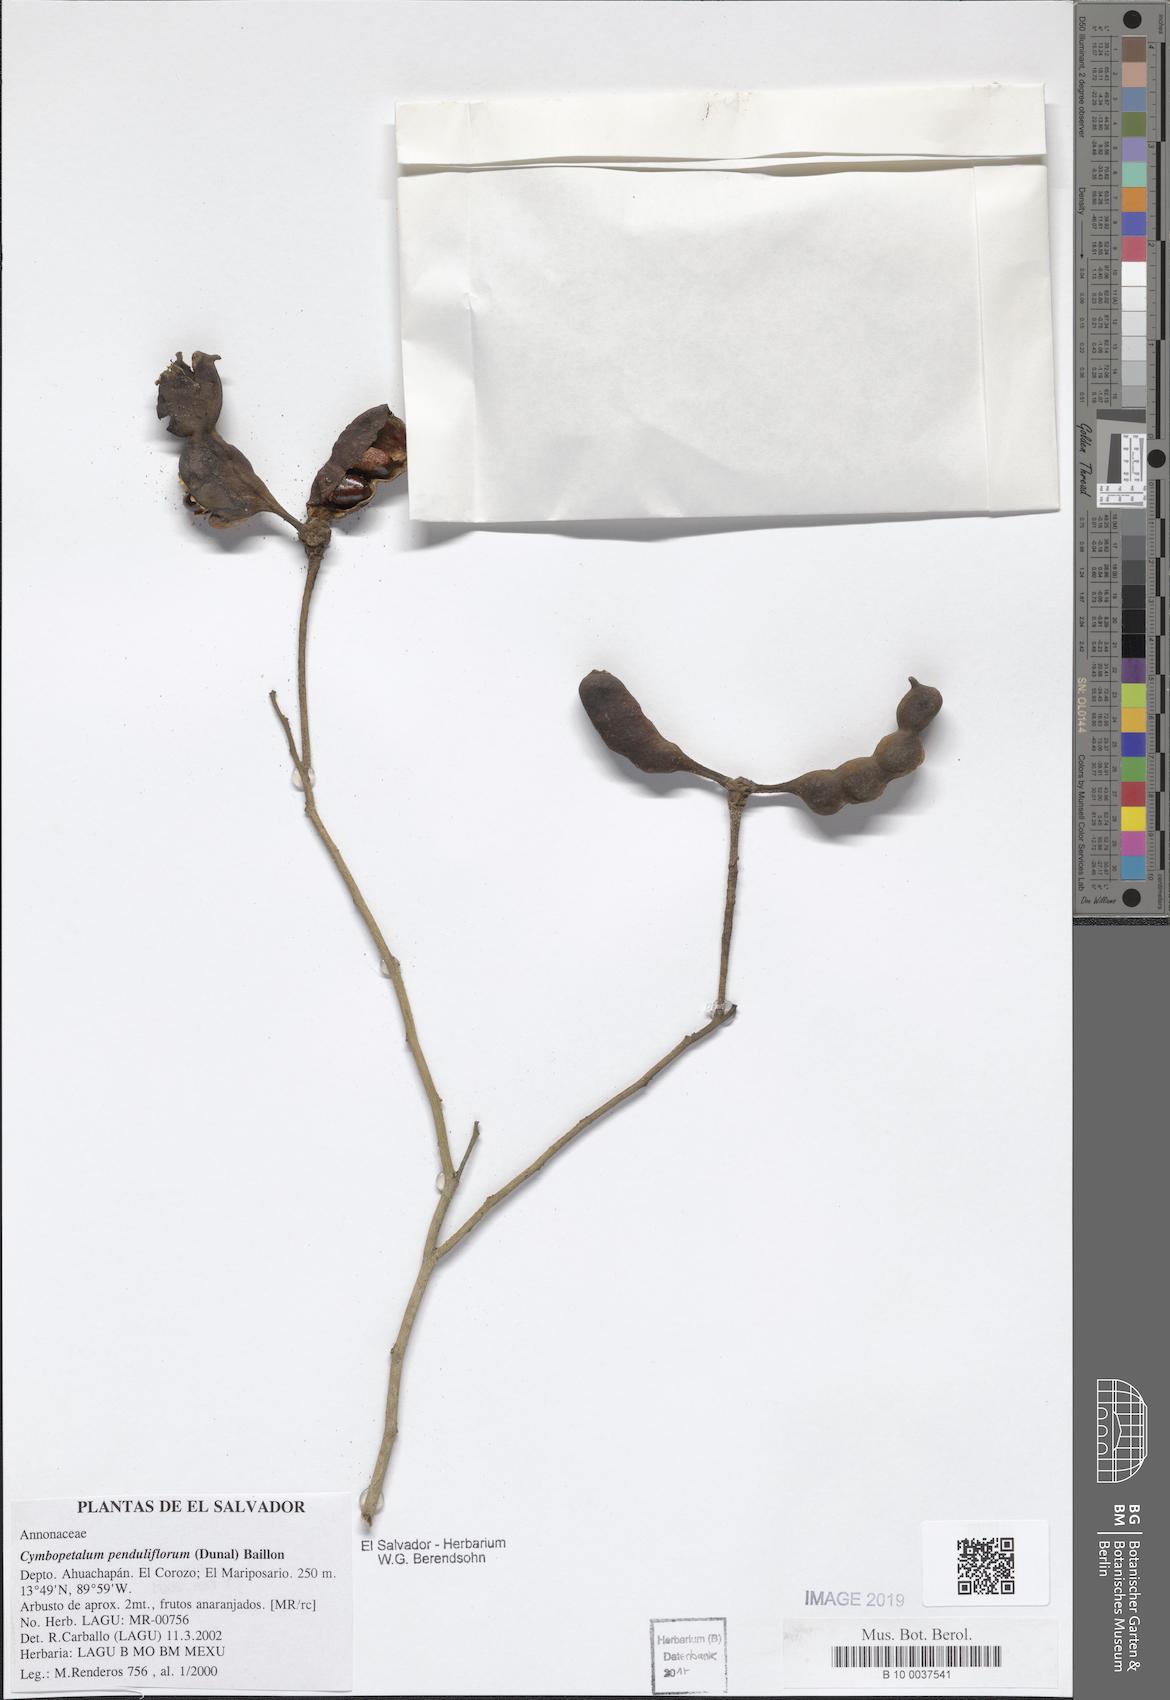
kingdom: Plantae
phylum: Tracheophyta
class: Magnoliopsida
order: Magnoliales
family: Annonaceae
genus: Cymbopetalum
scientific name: Cymbopetalum penduliflorum
